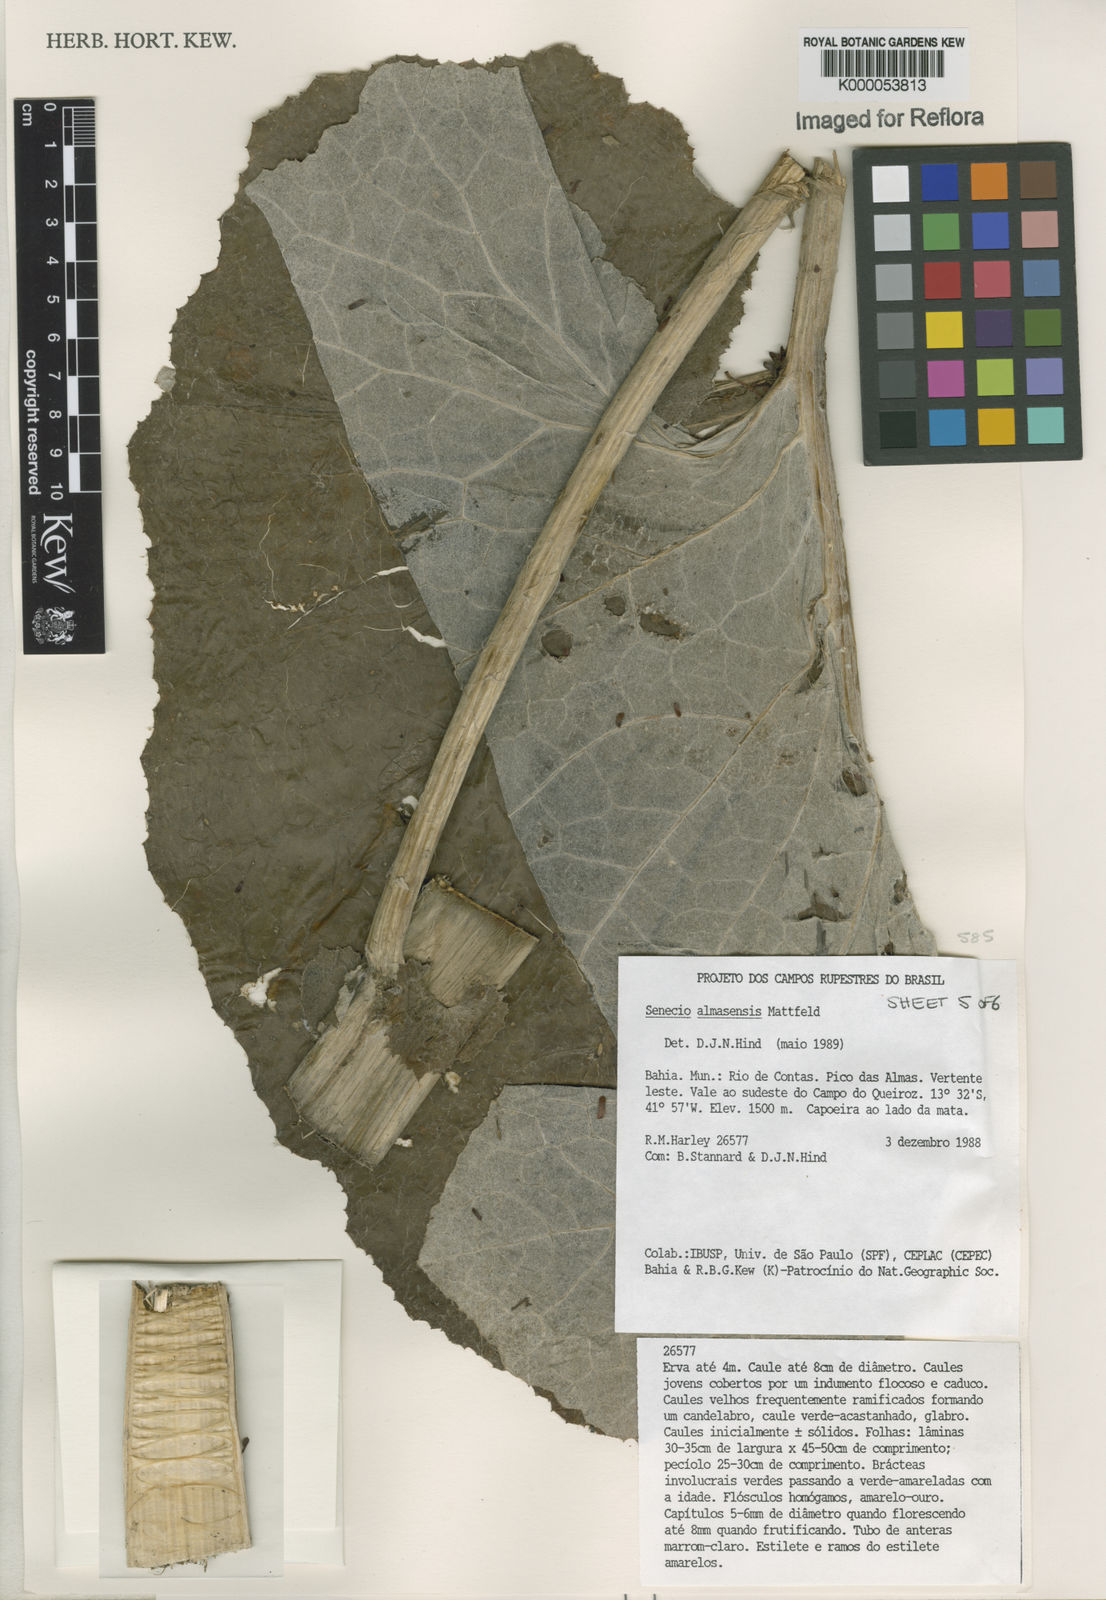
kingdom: Plantae
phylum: Tracheophyta
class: Magnoliopsida
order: Asterales
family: Asteraceae
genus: Senecio
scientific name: Senecio almasensis
